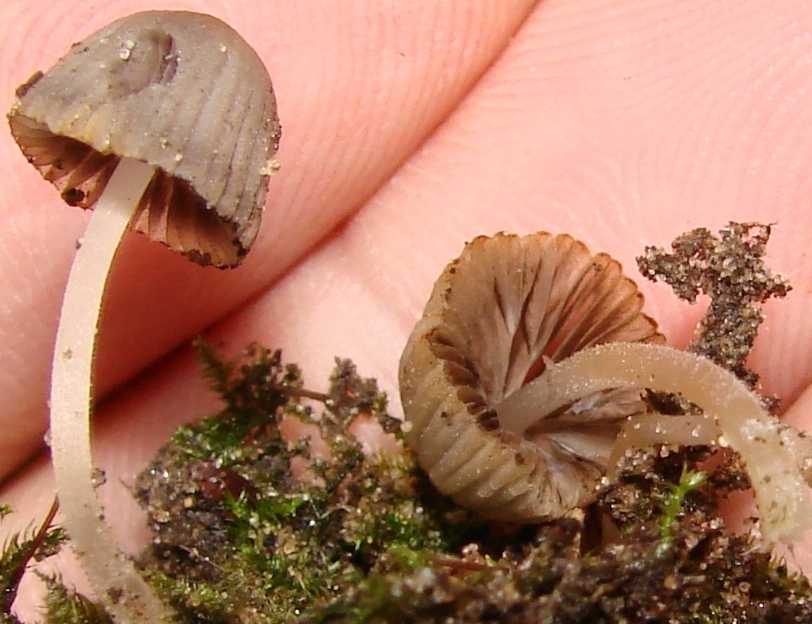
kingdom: Fungi
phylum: Basidiomycota
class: Agaricomycetes
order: Agaricales
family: Psathyrellaceae
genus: Coprinellus
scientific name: Coprinellus disseminatus
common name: bredsået blækhat
